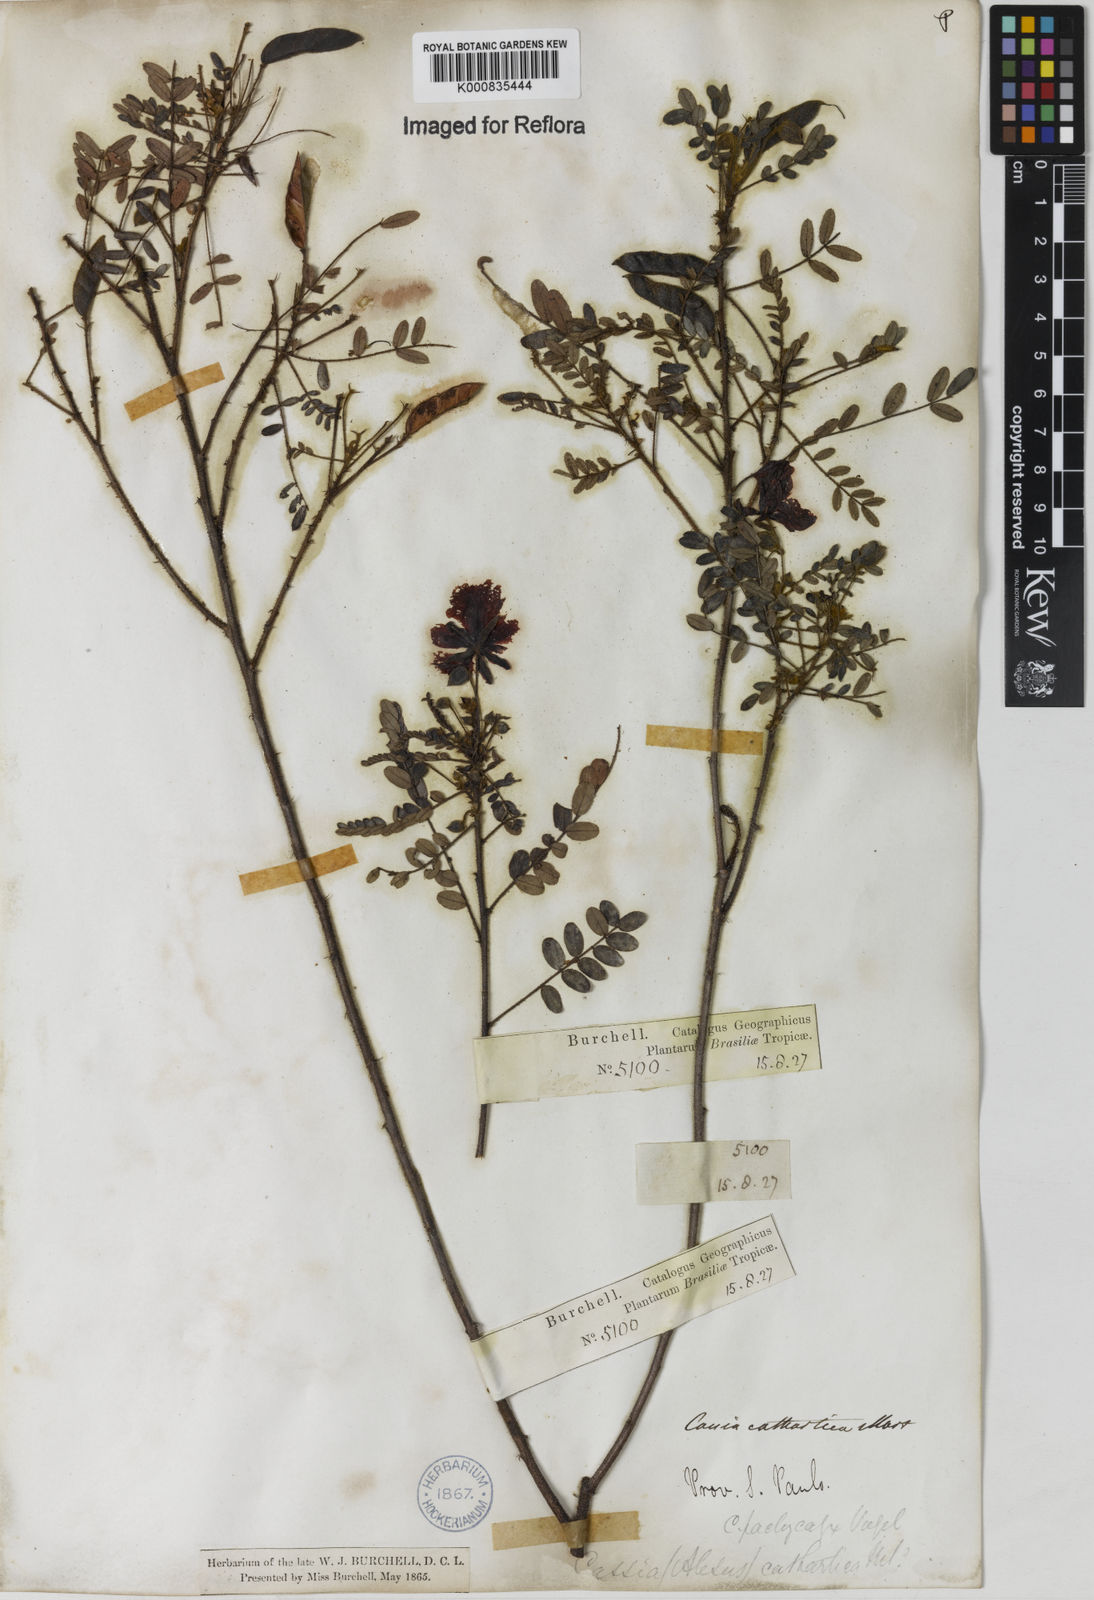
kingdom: Plantae
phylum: Tracheophyta
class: Magnoliopsida
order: Fabales
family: Fabaceae
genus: Chamaecrista
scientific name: Chamaecrista cathartica
